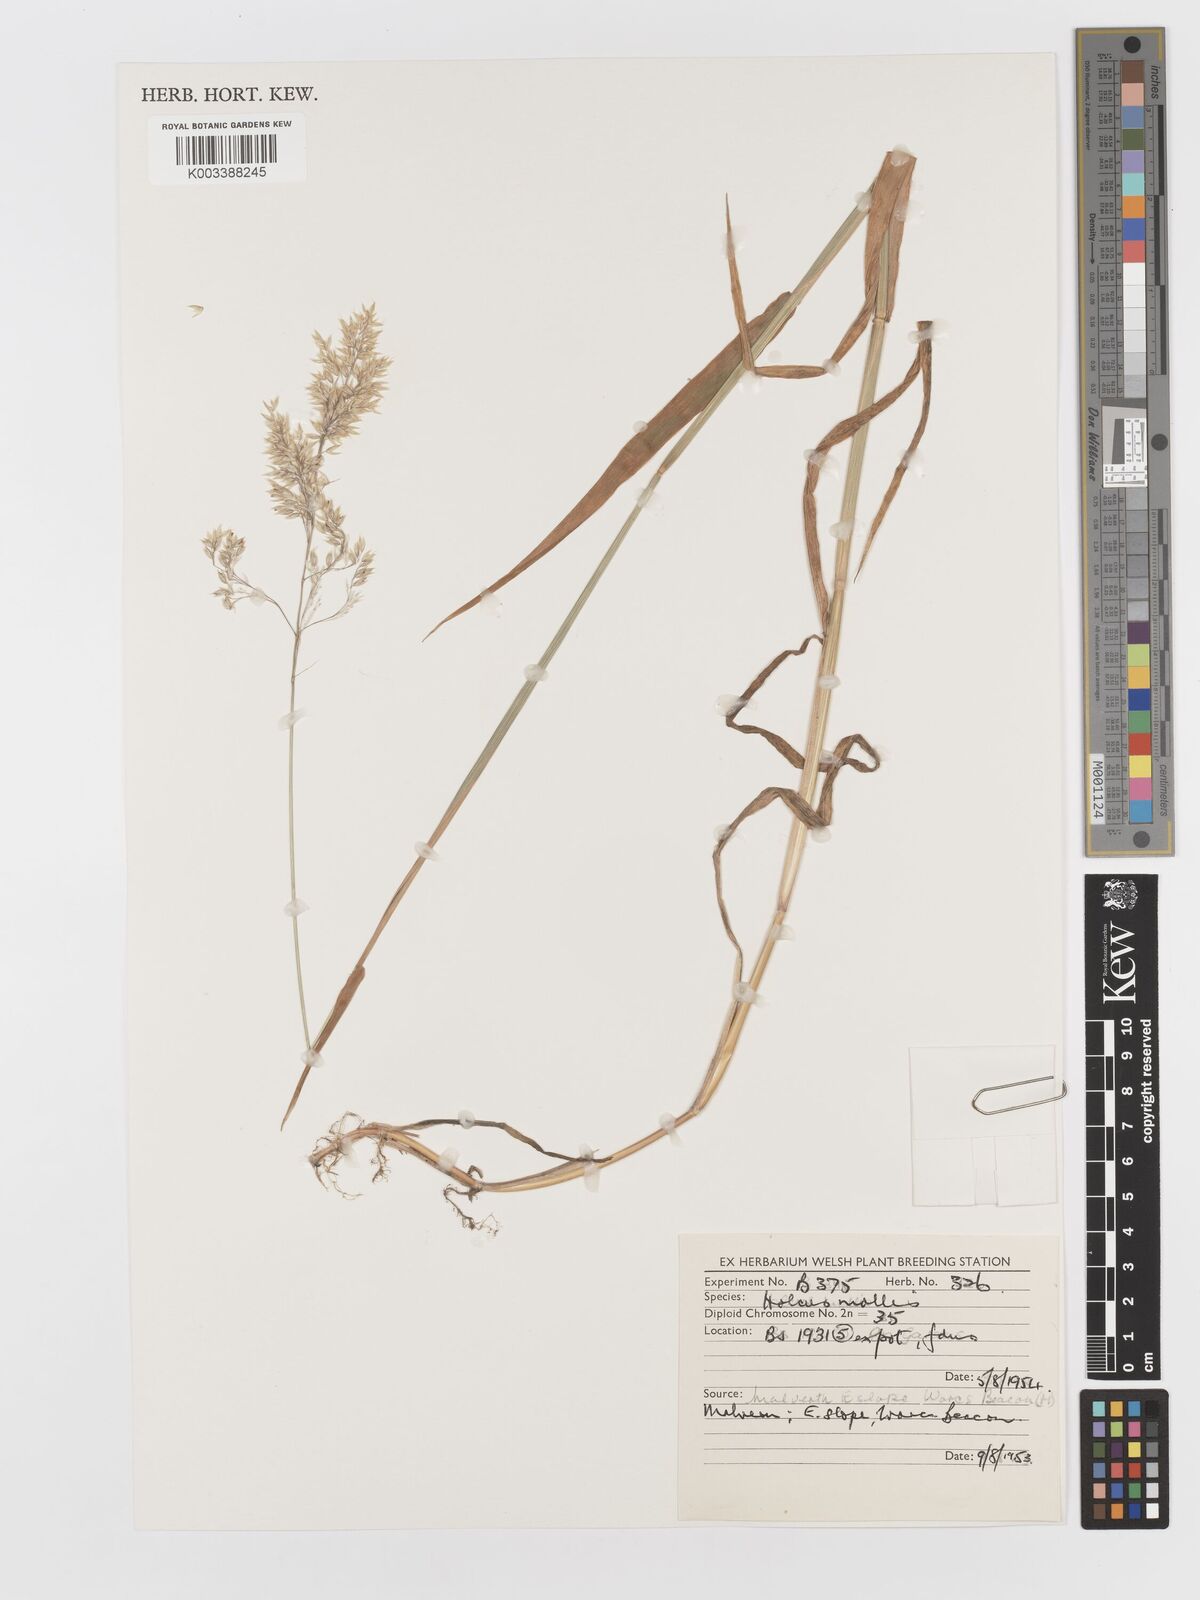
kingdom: Plantae
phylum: Tracheophyta
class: Liliopsida
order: Poales
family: Poaceae
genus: Holcus
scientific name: Holcus mollis
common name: Creeping velvetgrass
